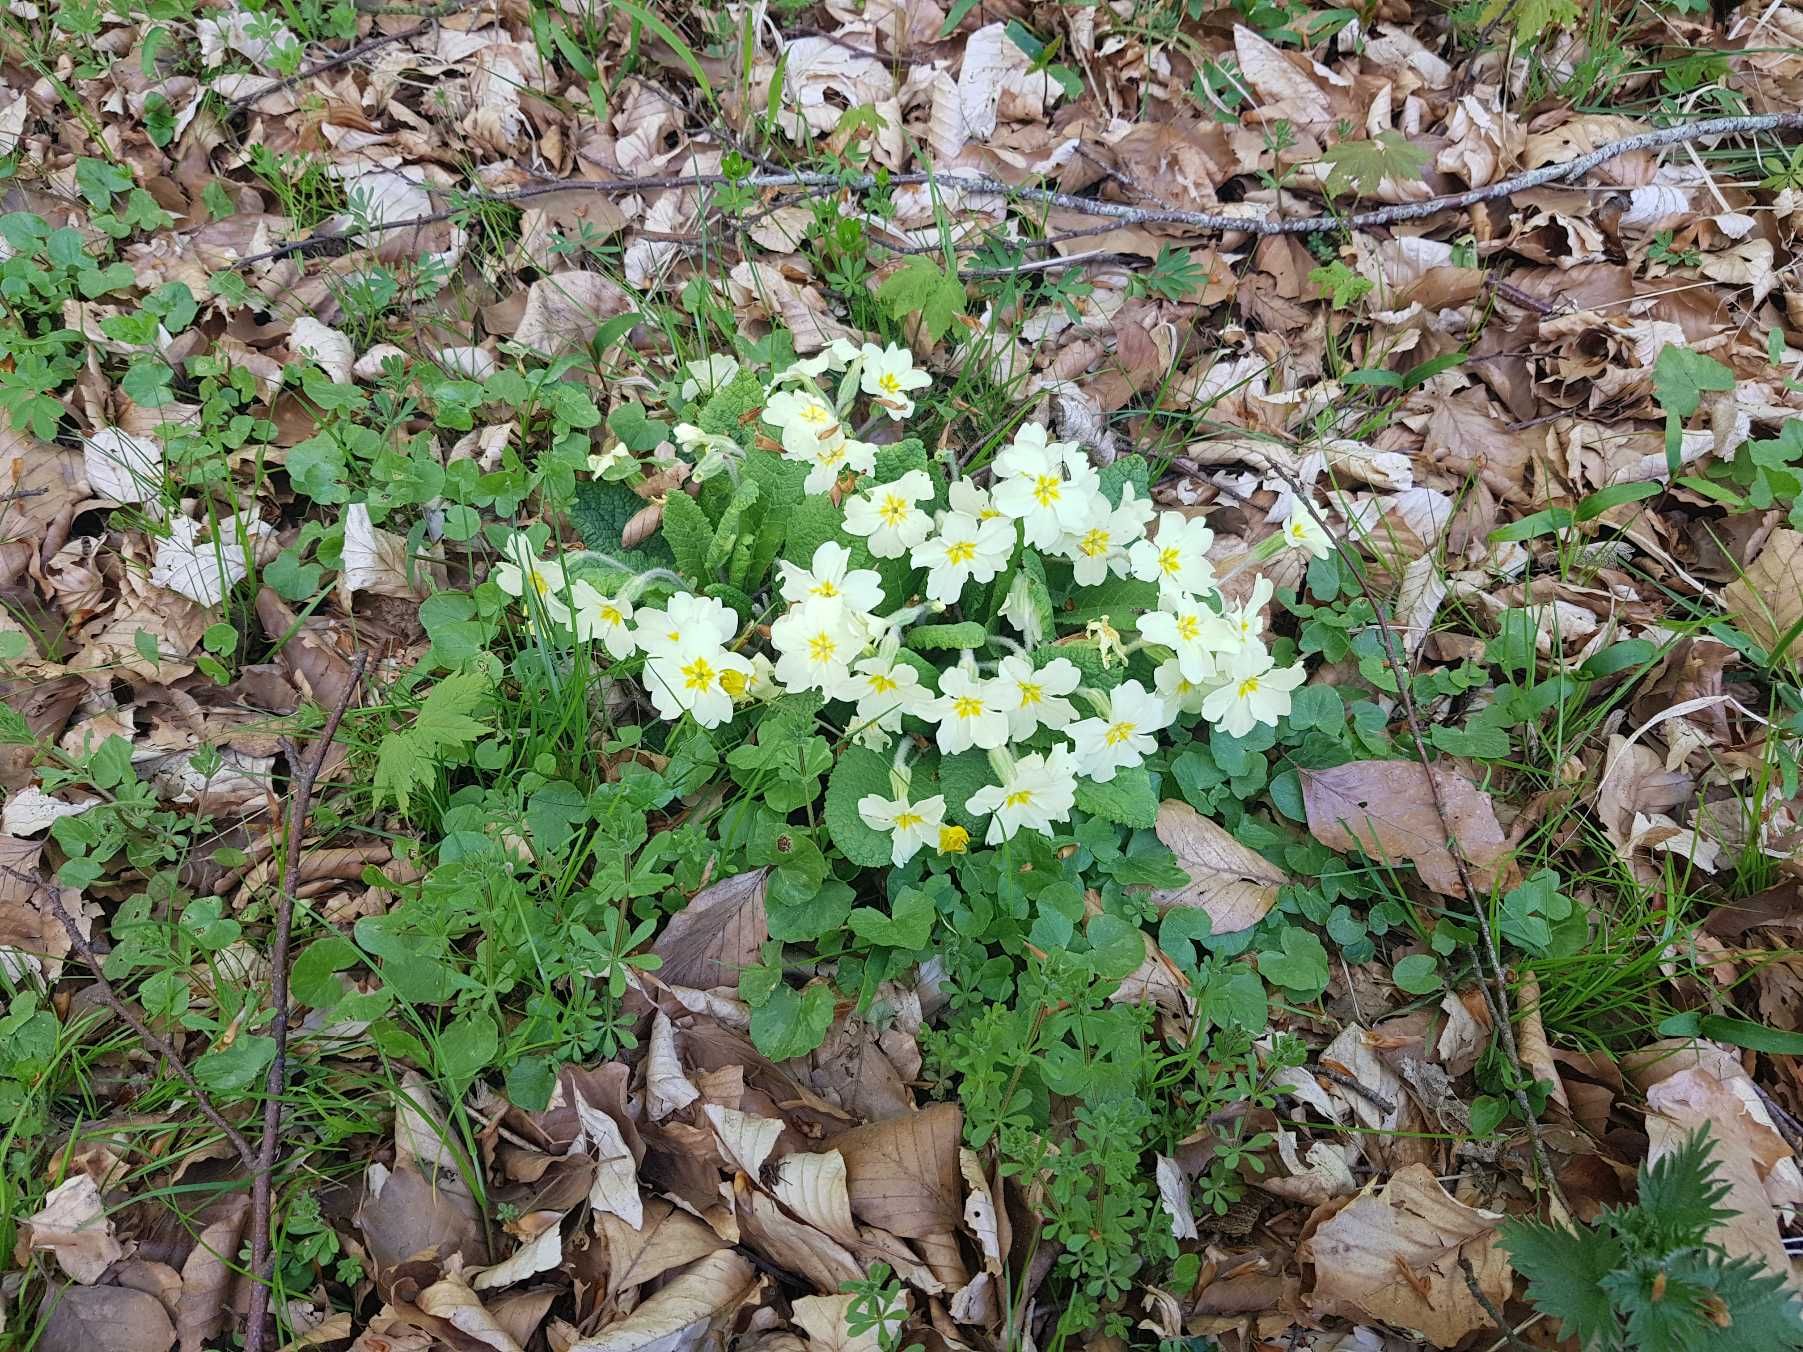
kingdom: Plantae
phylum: Tracheophyta
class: Magnoliopsida
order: Ericales
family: Primulaceae
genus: Primula
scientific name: Primula vulgaris
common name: Storblomstret kodriver
